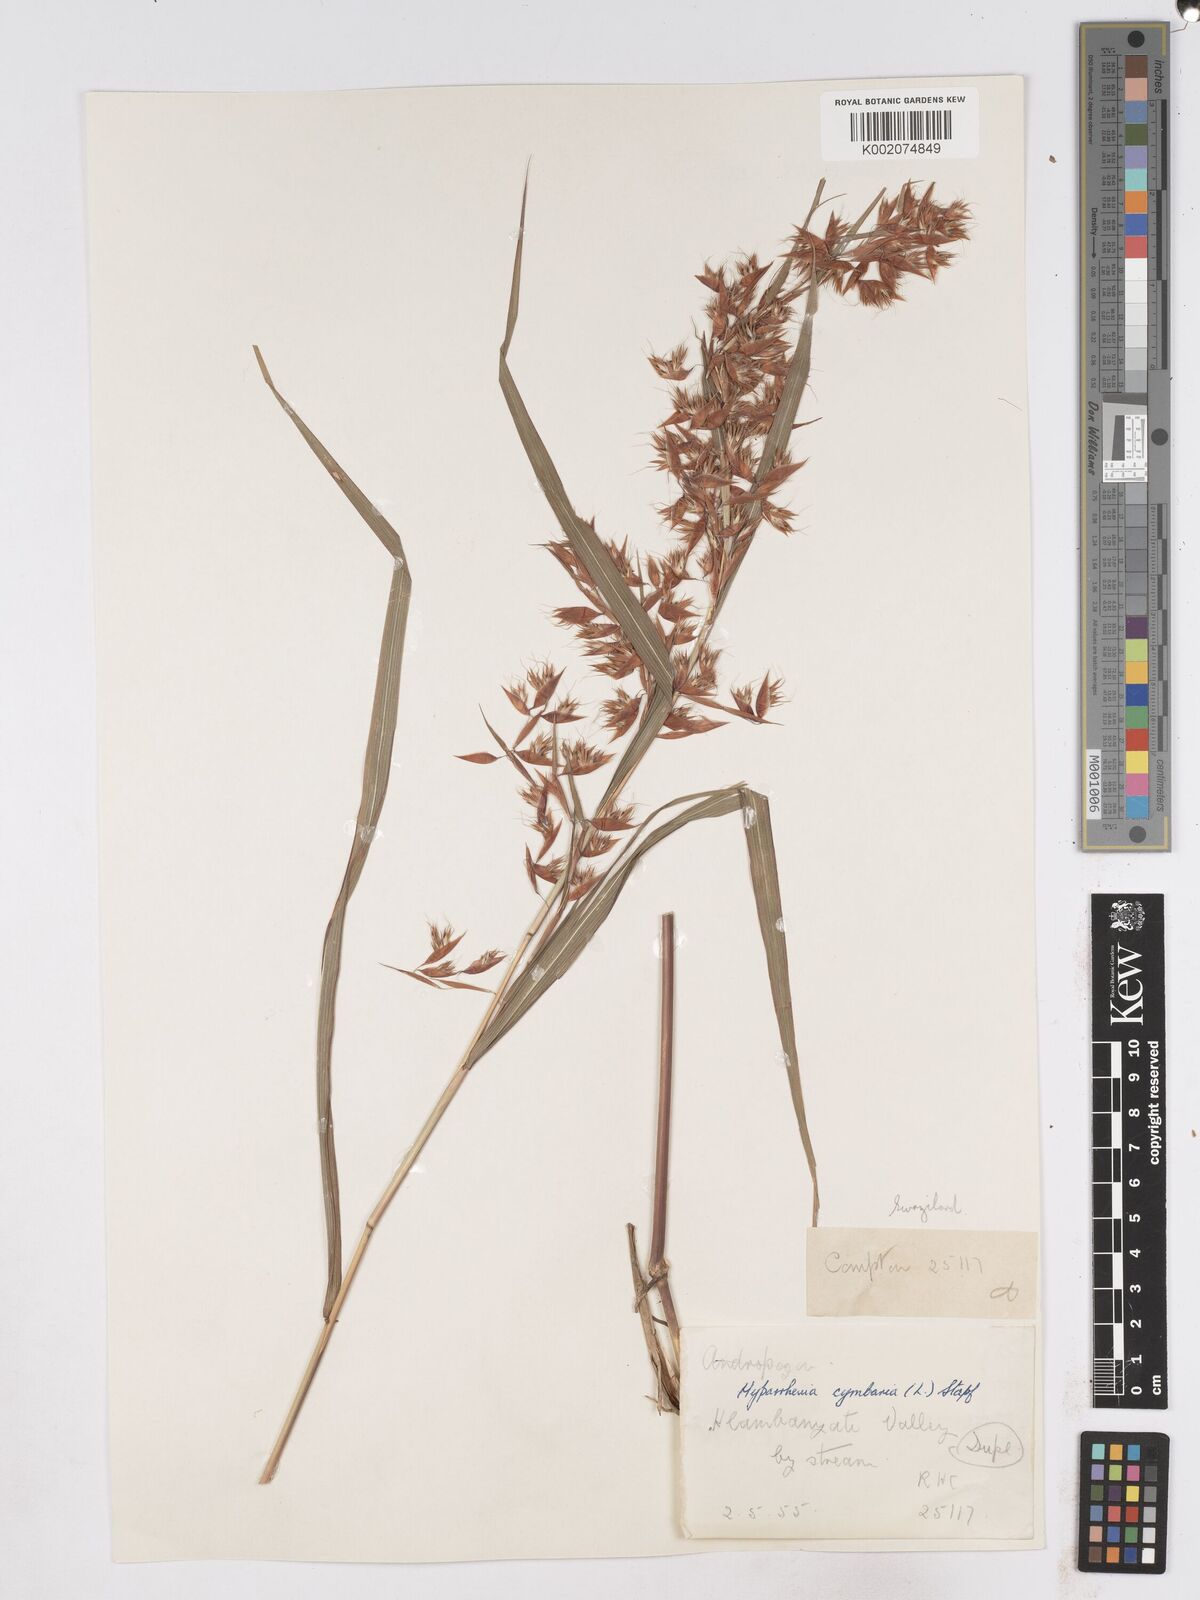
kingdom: Plantae
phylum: Tracheophyta
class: Liliopsida
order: Poales
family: Poaceae
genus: Hyparrhenia
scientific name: Hyparrhenia cymbaria
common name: Boat thatching grass
